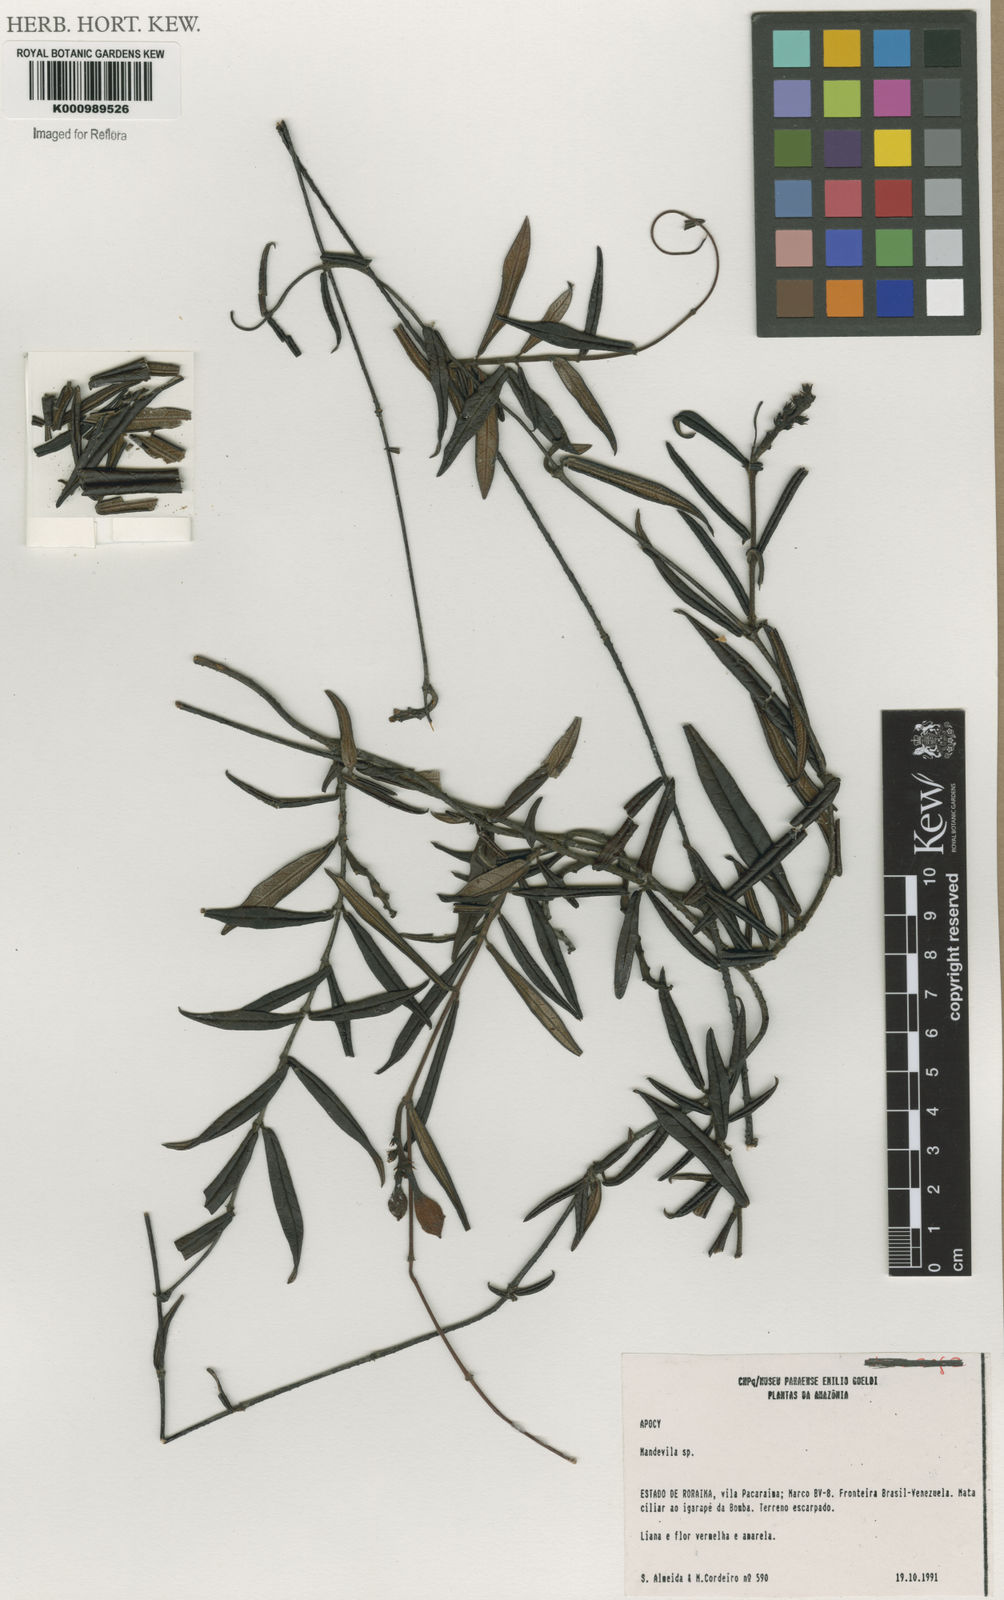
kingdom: Plantae
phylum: Tracheophyta
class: Magnoliopsida
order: Gentianales
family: Apocynaceae
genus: Mandevilla
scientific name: Mandevilla
